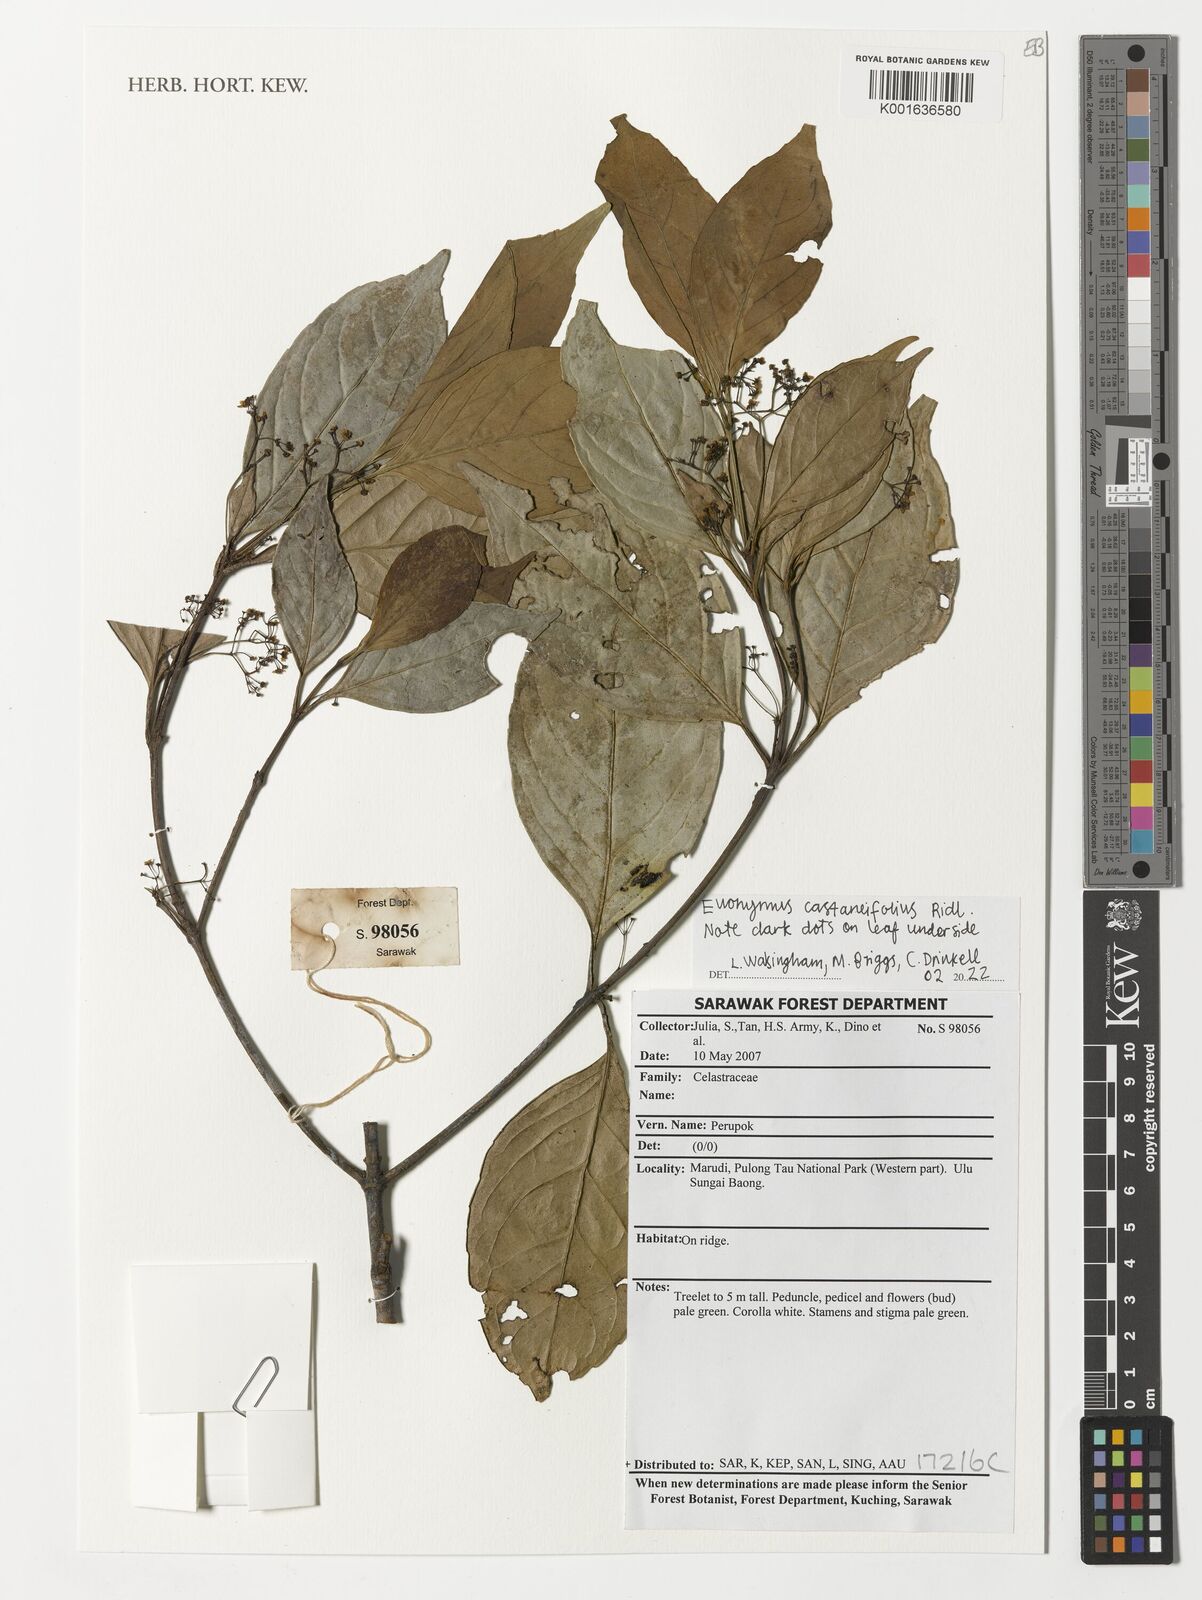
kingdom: Plantae
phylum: Tracheophyta
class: Magnoliopsida
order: Celastrales
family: Celastraceae
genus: Euonymus
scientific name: Euonymus castaneifolius
